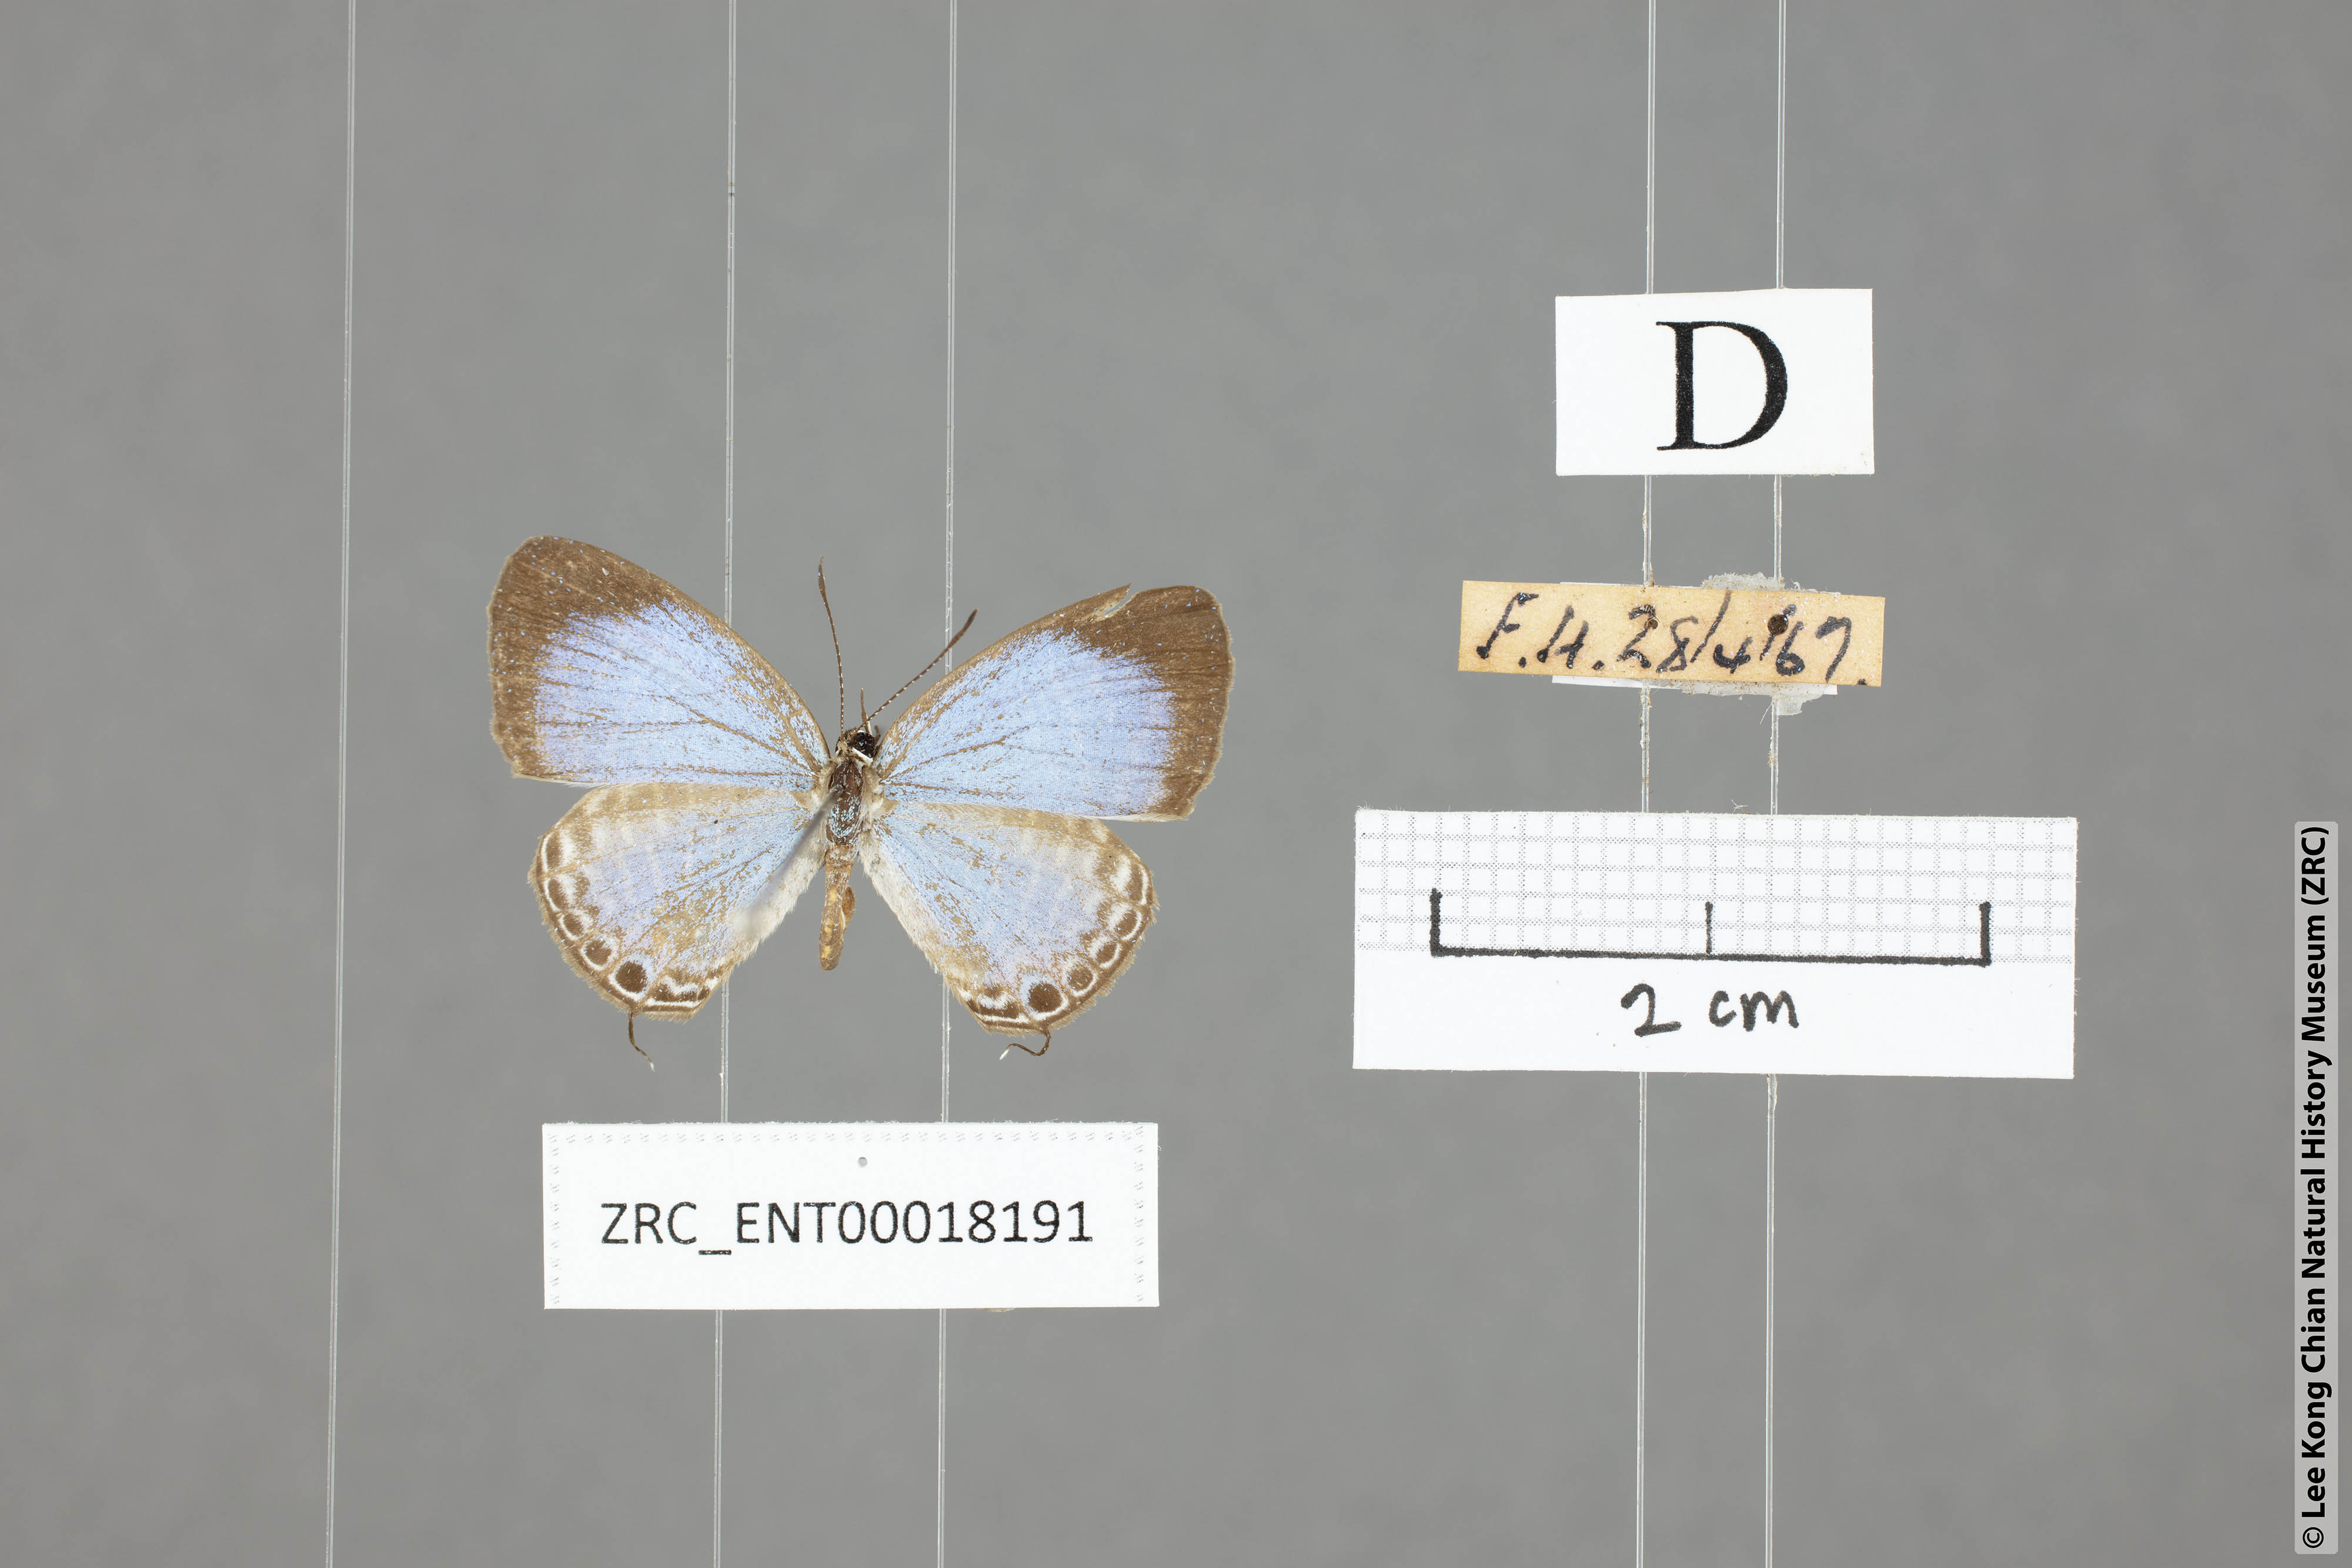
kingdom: Animalia
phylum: Arthropoda
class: Insecta
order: Lepidoptera
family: Lycaenidae
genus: Jamides
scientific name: Jamides talinga
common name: Lesser cerulean
